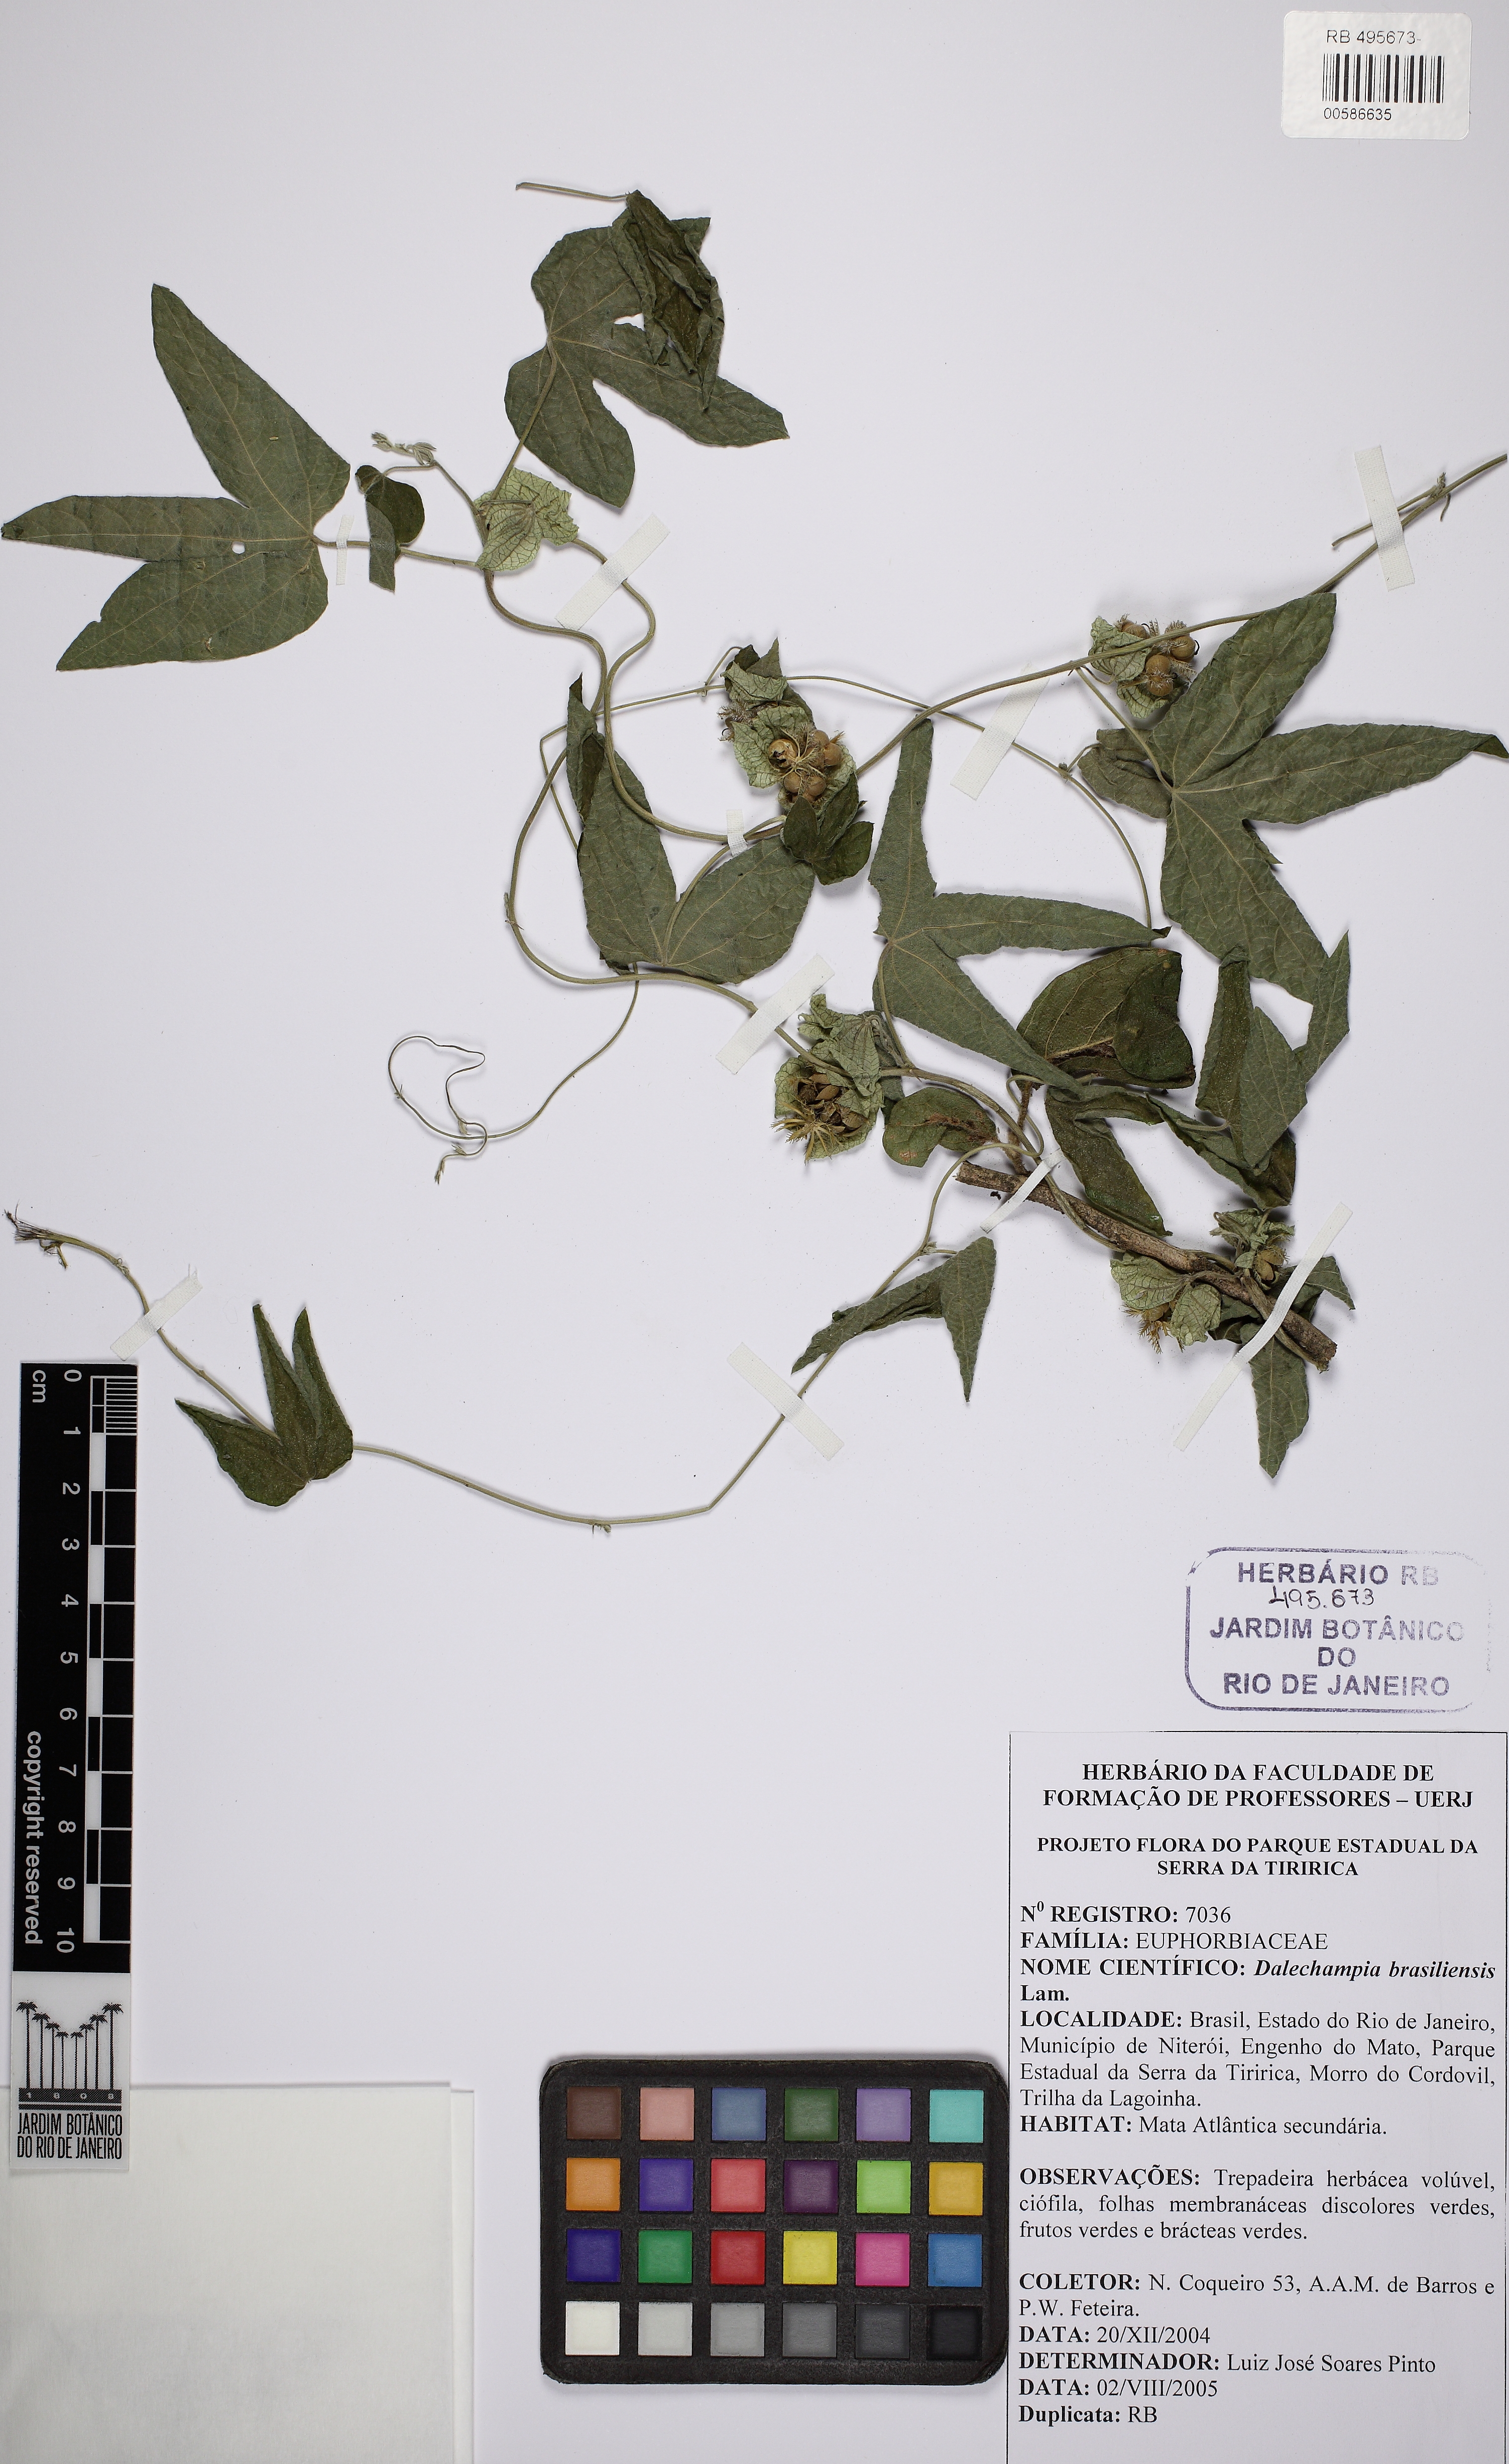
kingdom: Plantae
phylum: Tracheophyta
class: Magnoliopsida
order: Malpighiales
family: Euphorbiaceae
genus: Dalechampia
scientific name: Dalechampia brasiliensis
